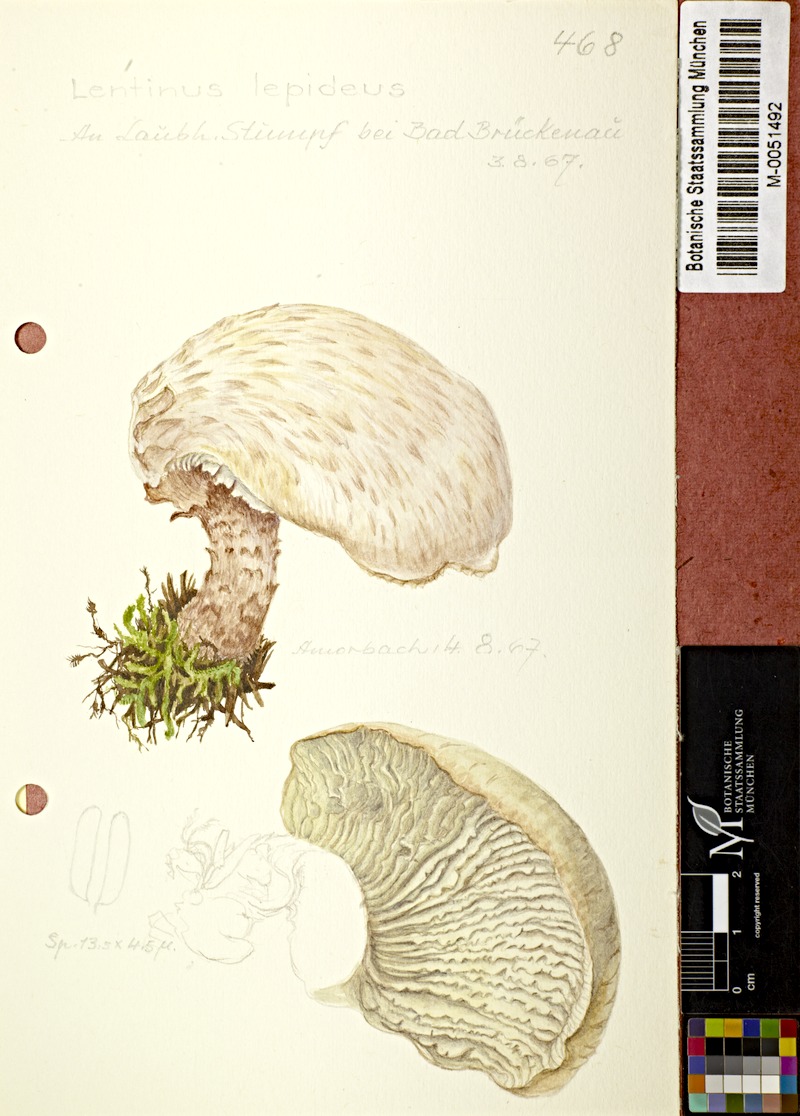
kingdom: Fungi
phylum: Basidiomycota
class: Agaricomycetes
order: Gloeophyllales
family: Gloeophyllaceae
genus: Neolentinus
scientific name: Neolentinus lepideus
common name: Scaly sawgill
